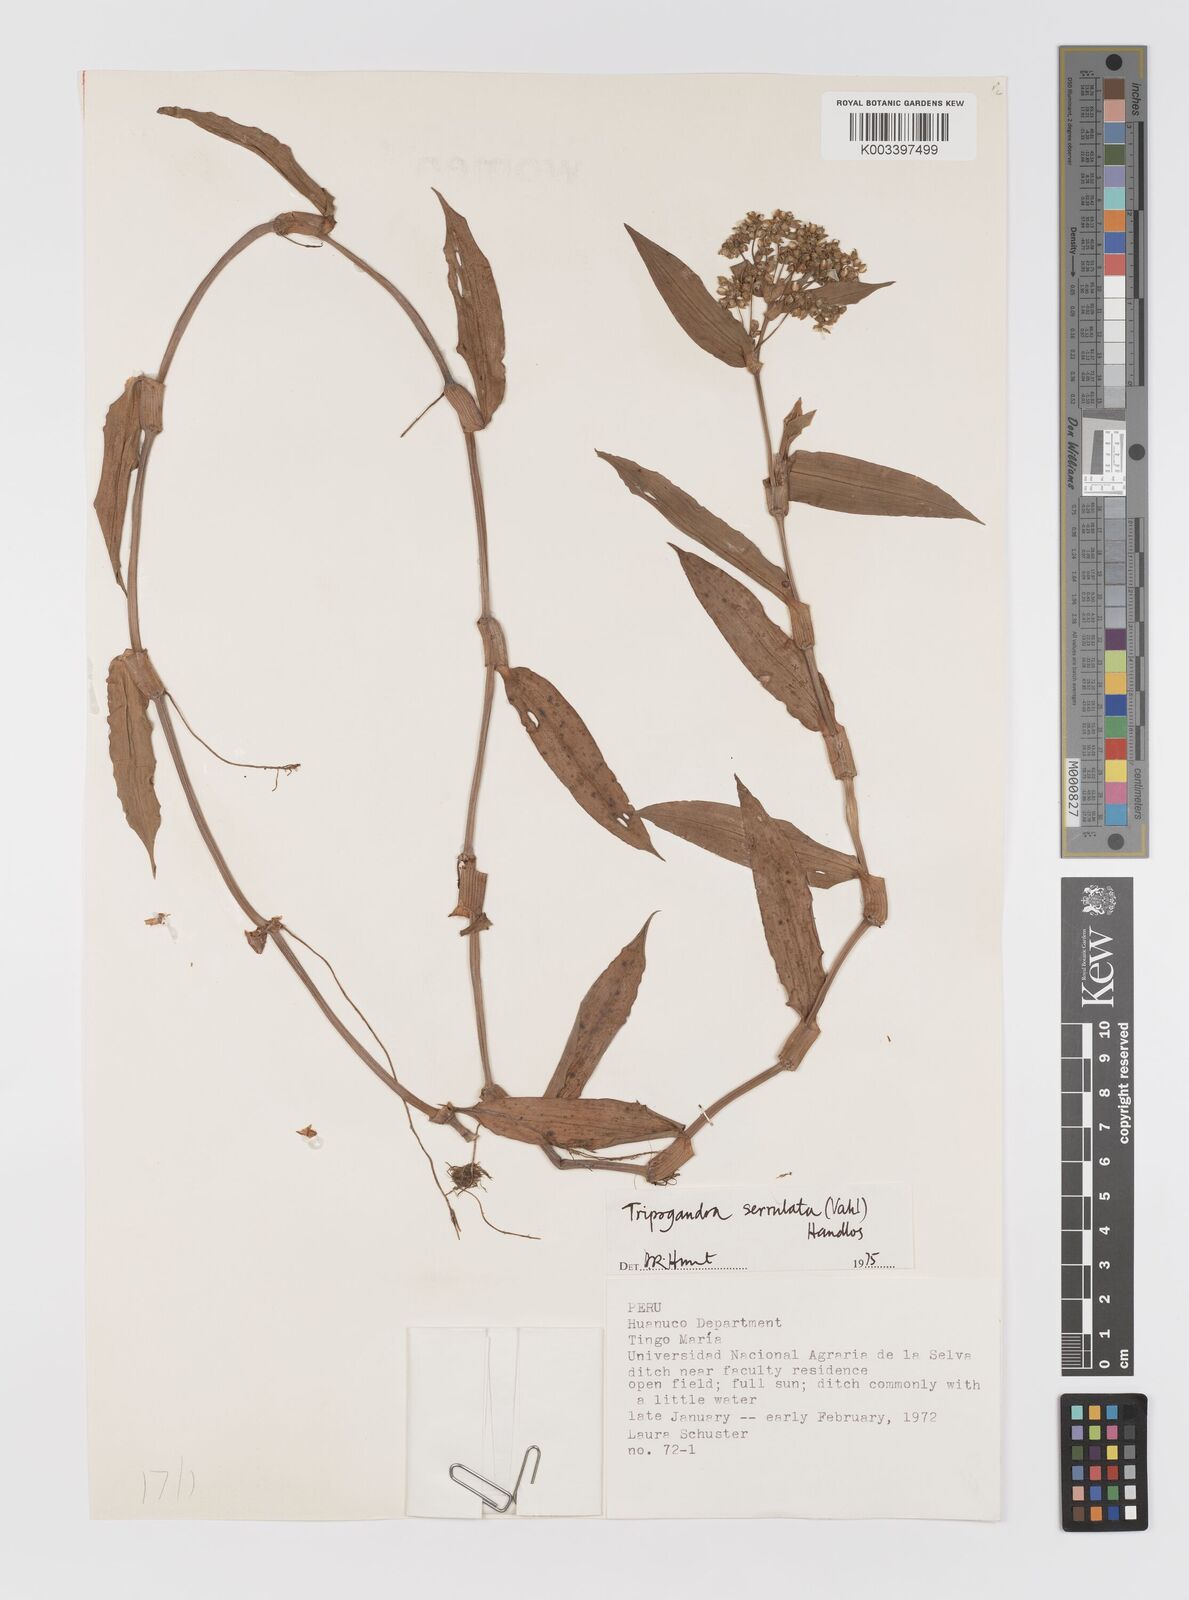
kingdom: Plantae
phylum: Tracheophyta
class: Liliopsida
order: Commelinales
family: Commelinaceae
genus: Callisia
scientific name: Callisia serrulata
